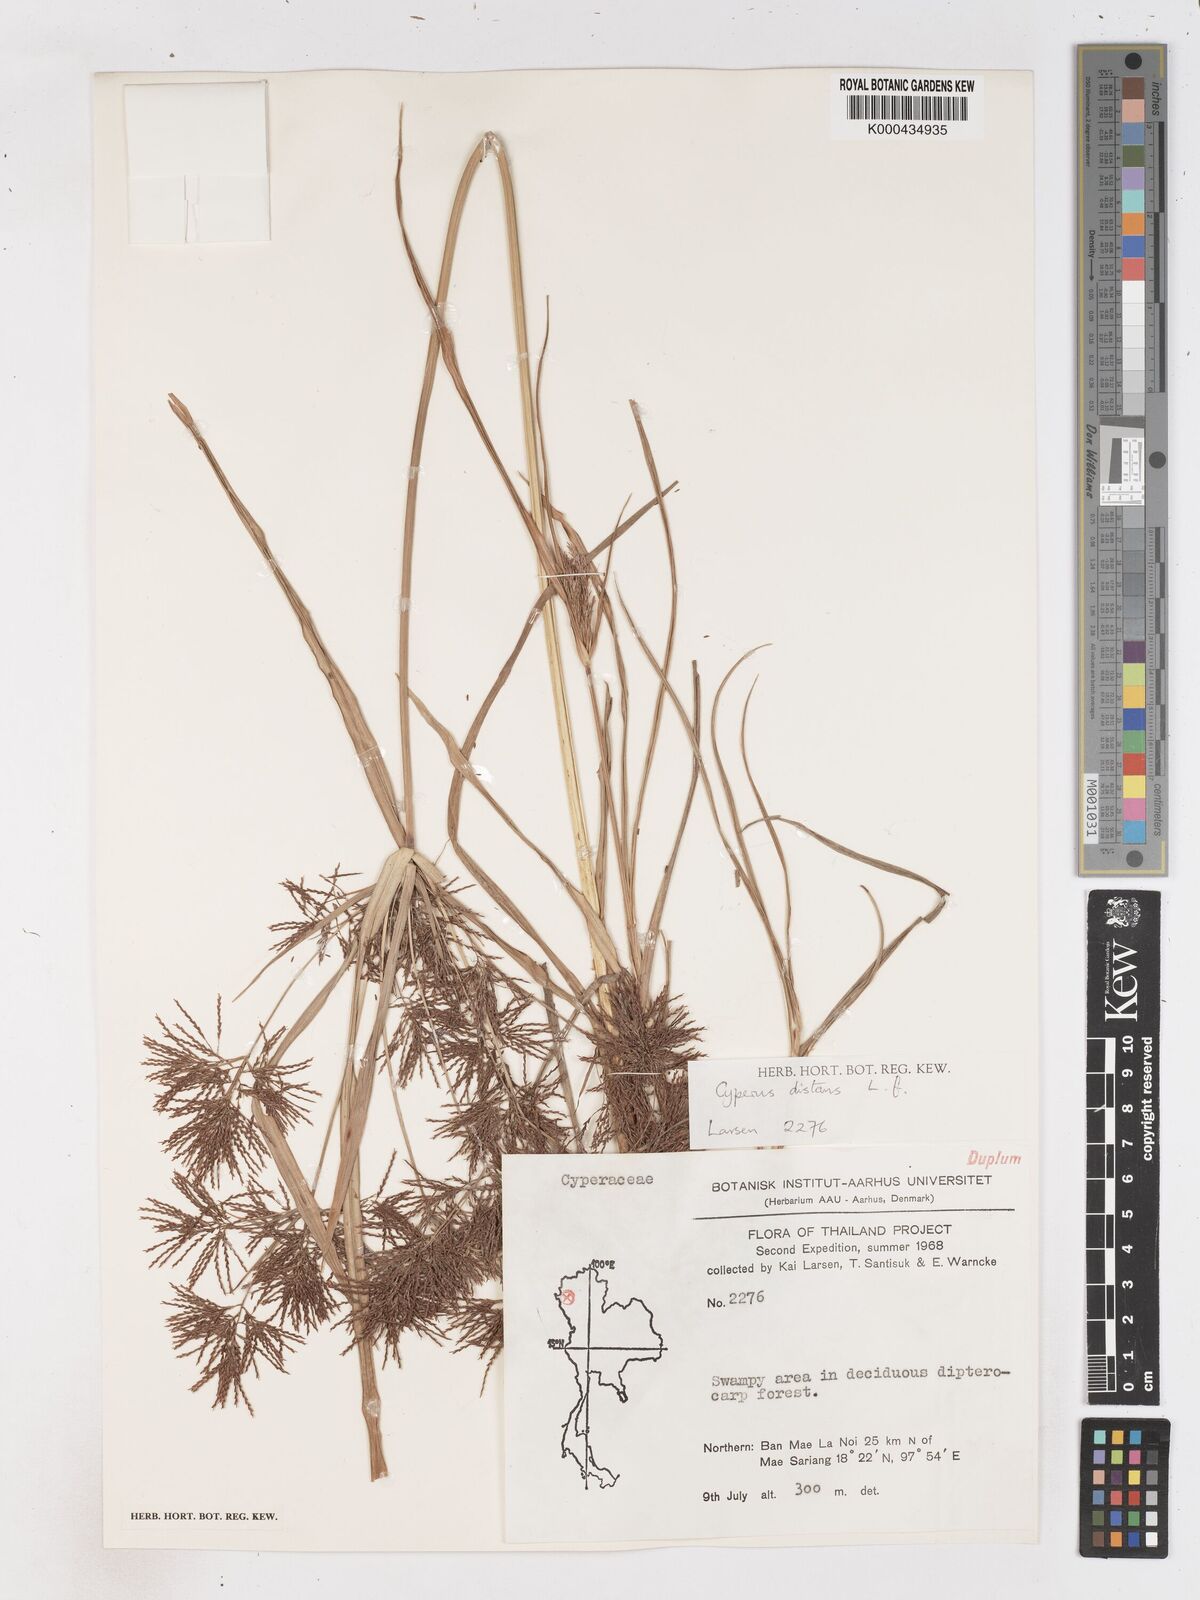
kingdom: Plantae
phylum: Tracheophyta
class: Liliopsida
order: Poales
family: Cyperaceae
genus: Cyperus
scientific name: Cyperus distans
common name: Slender cyperus
